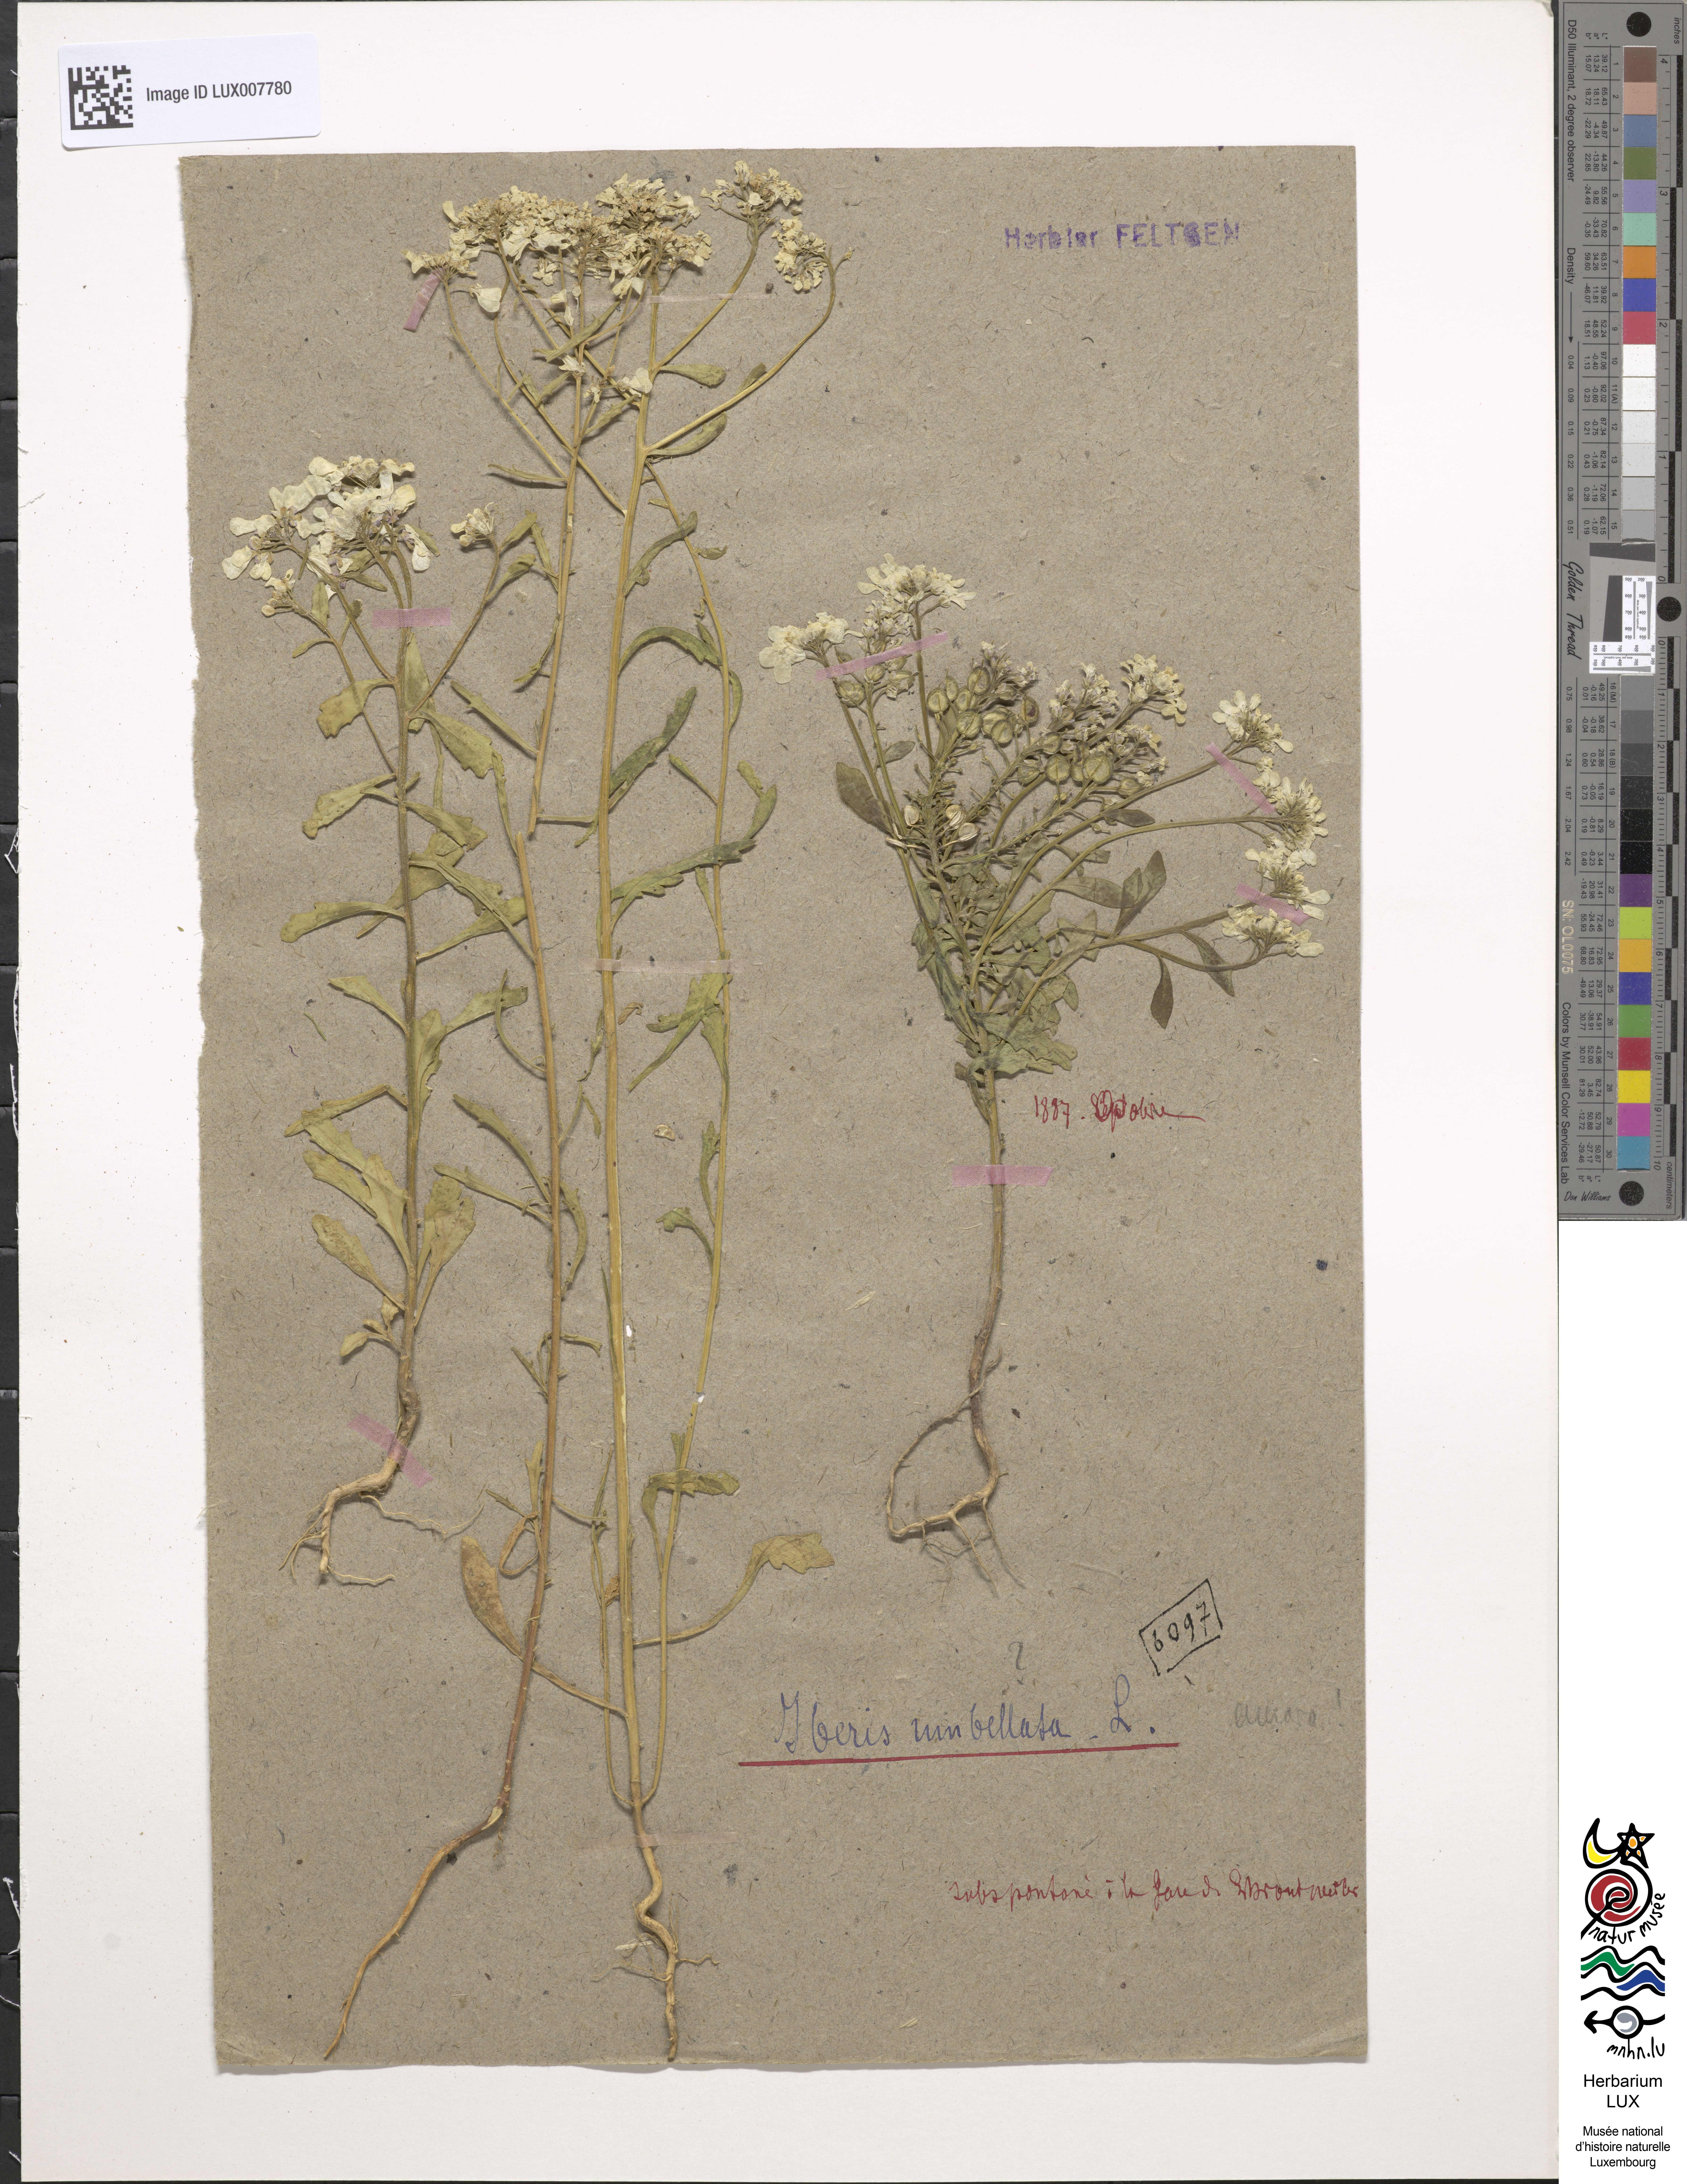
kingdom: Plantae
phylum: Tracheophyta
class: Magnoliopsida
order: Brassicales
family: Brassicaceae
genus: Iberis
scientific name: Iberis umbellata
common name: Globe candytuft
